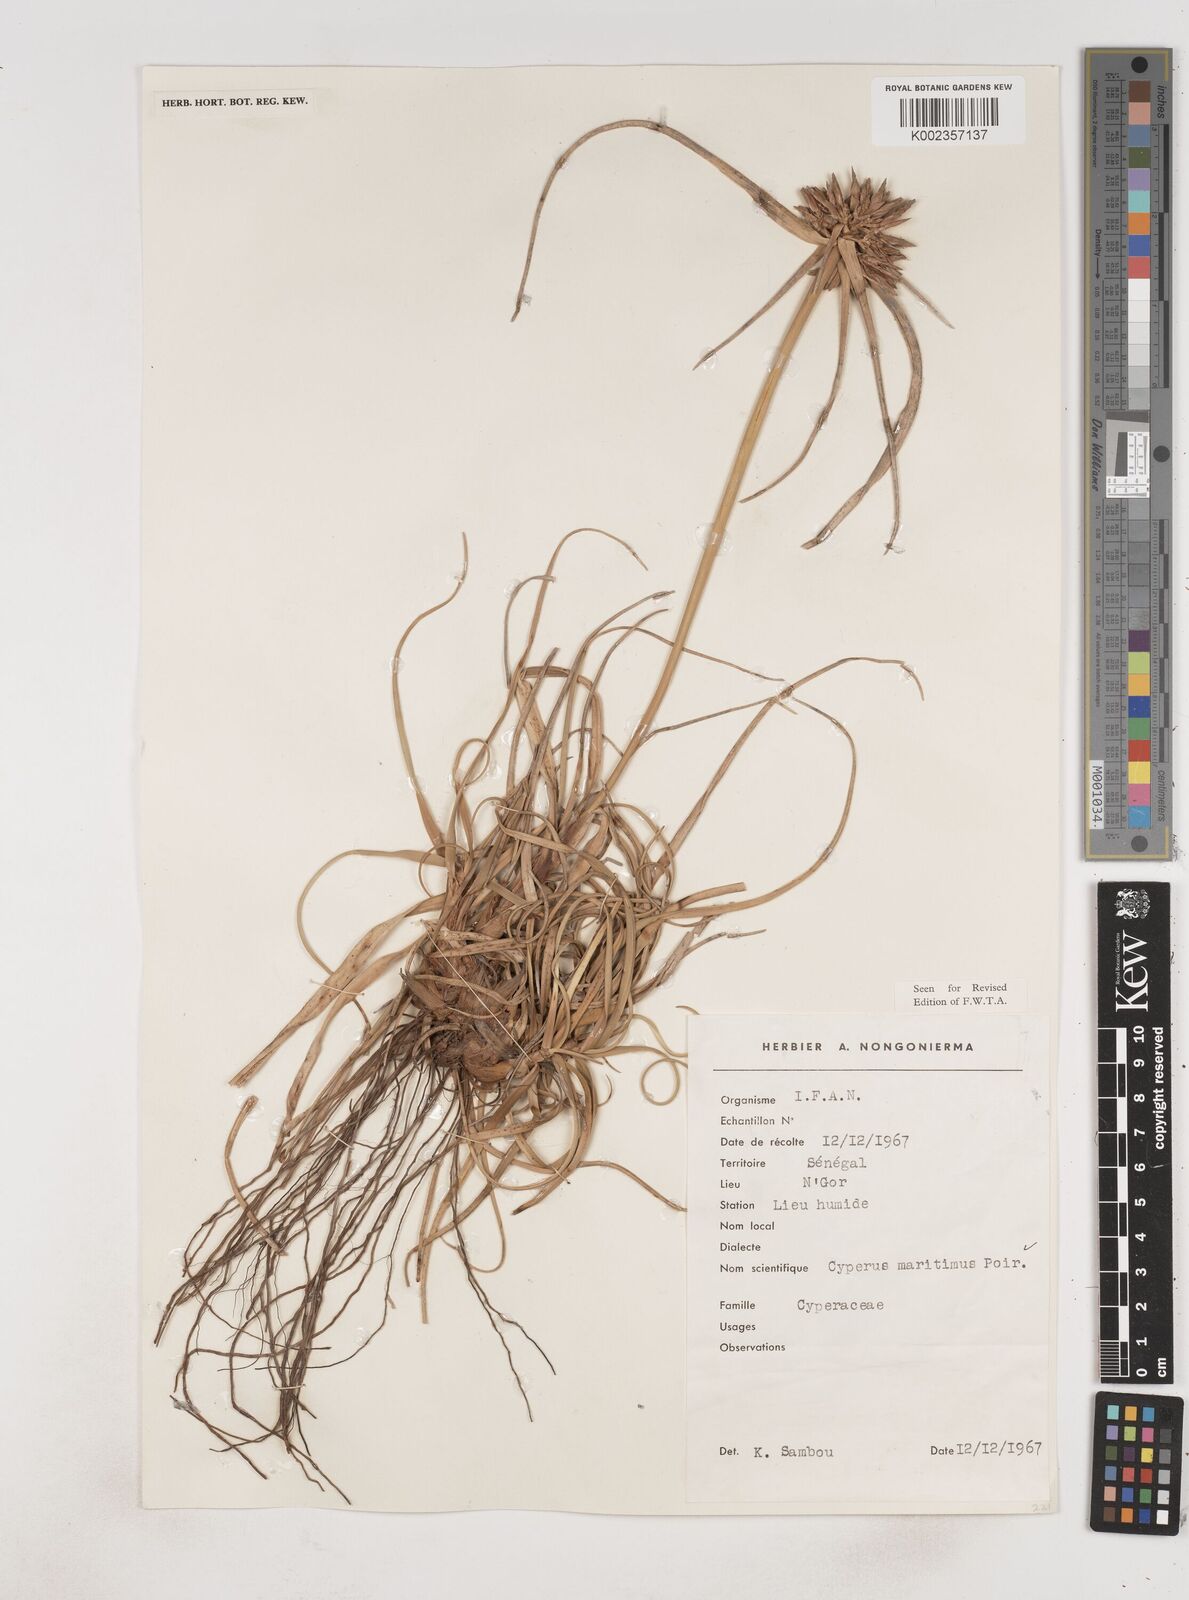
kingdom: Plantae
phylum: Tracheophyta
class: Liliopsida
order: Poales
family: Cyperaceae
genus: Cyperus
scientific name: Cyperus crassipes
